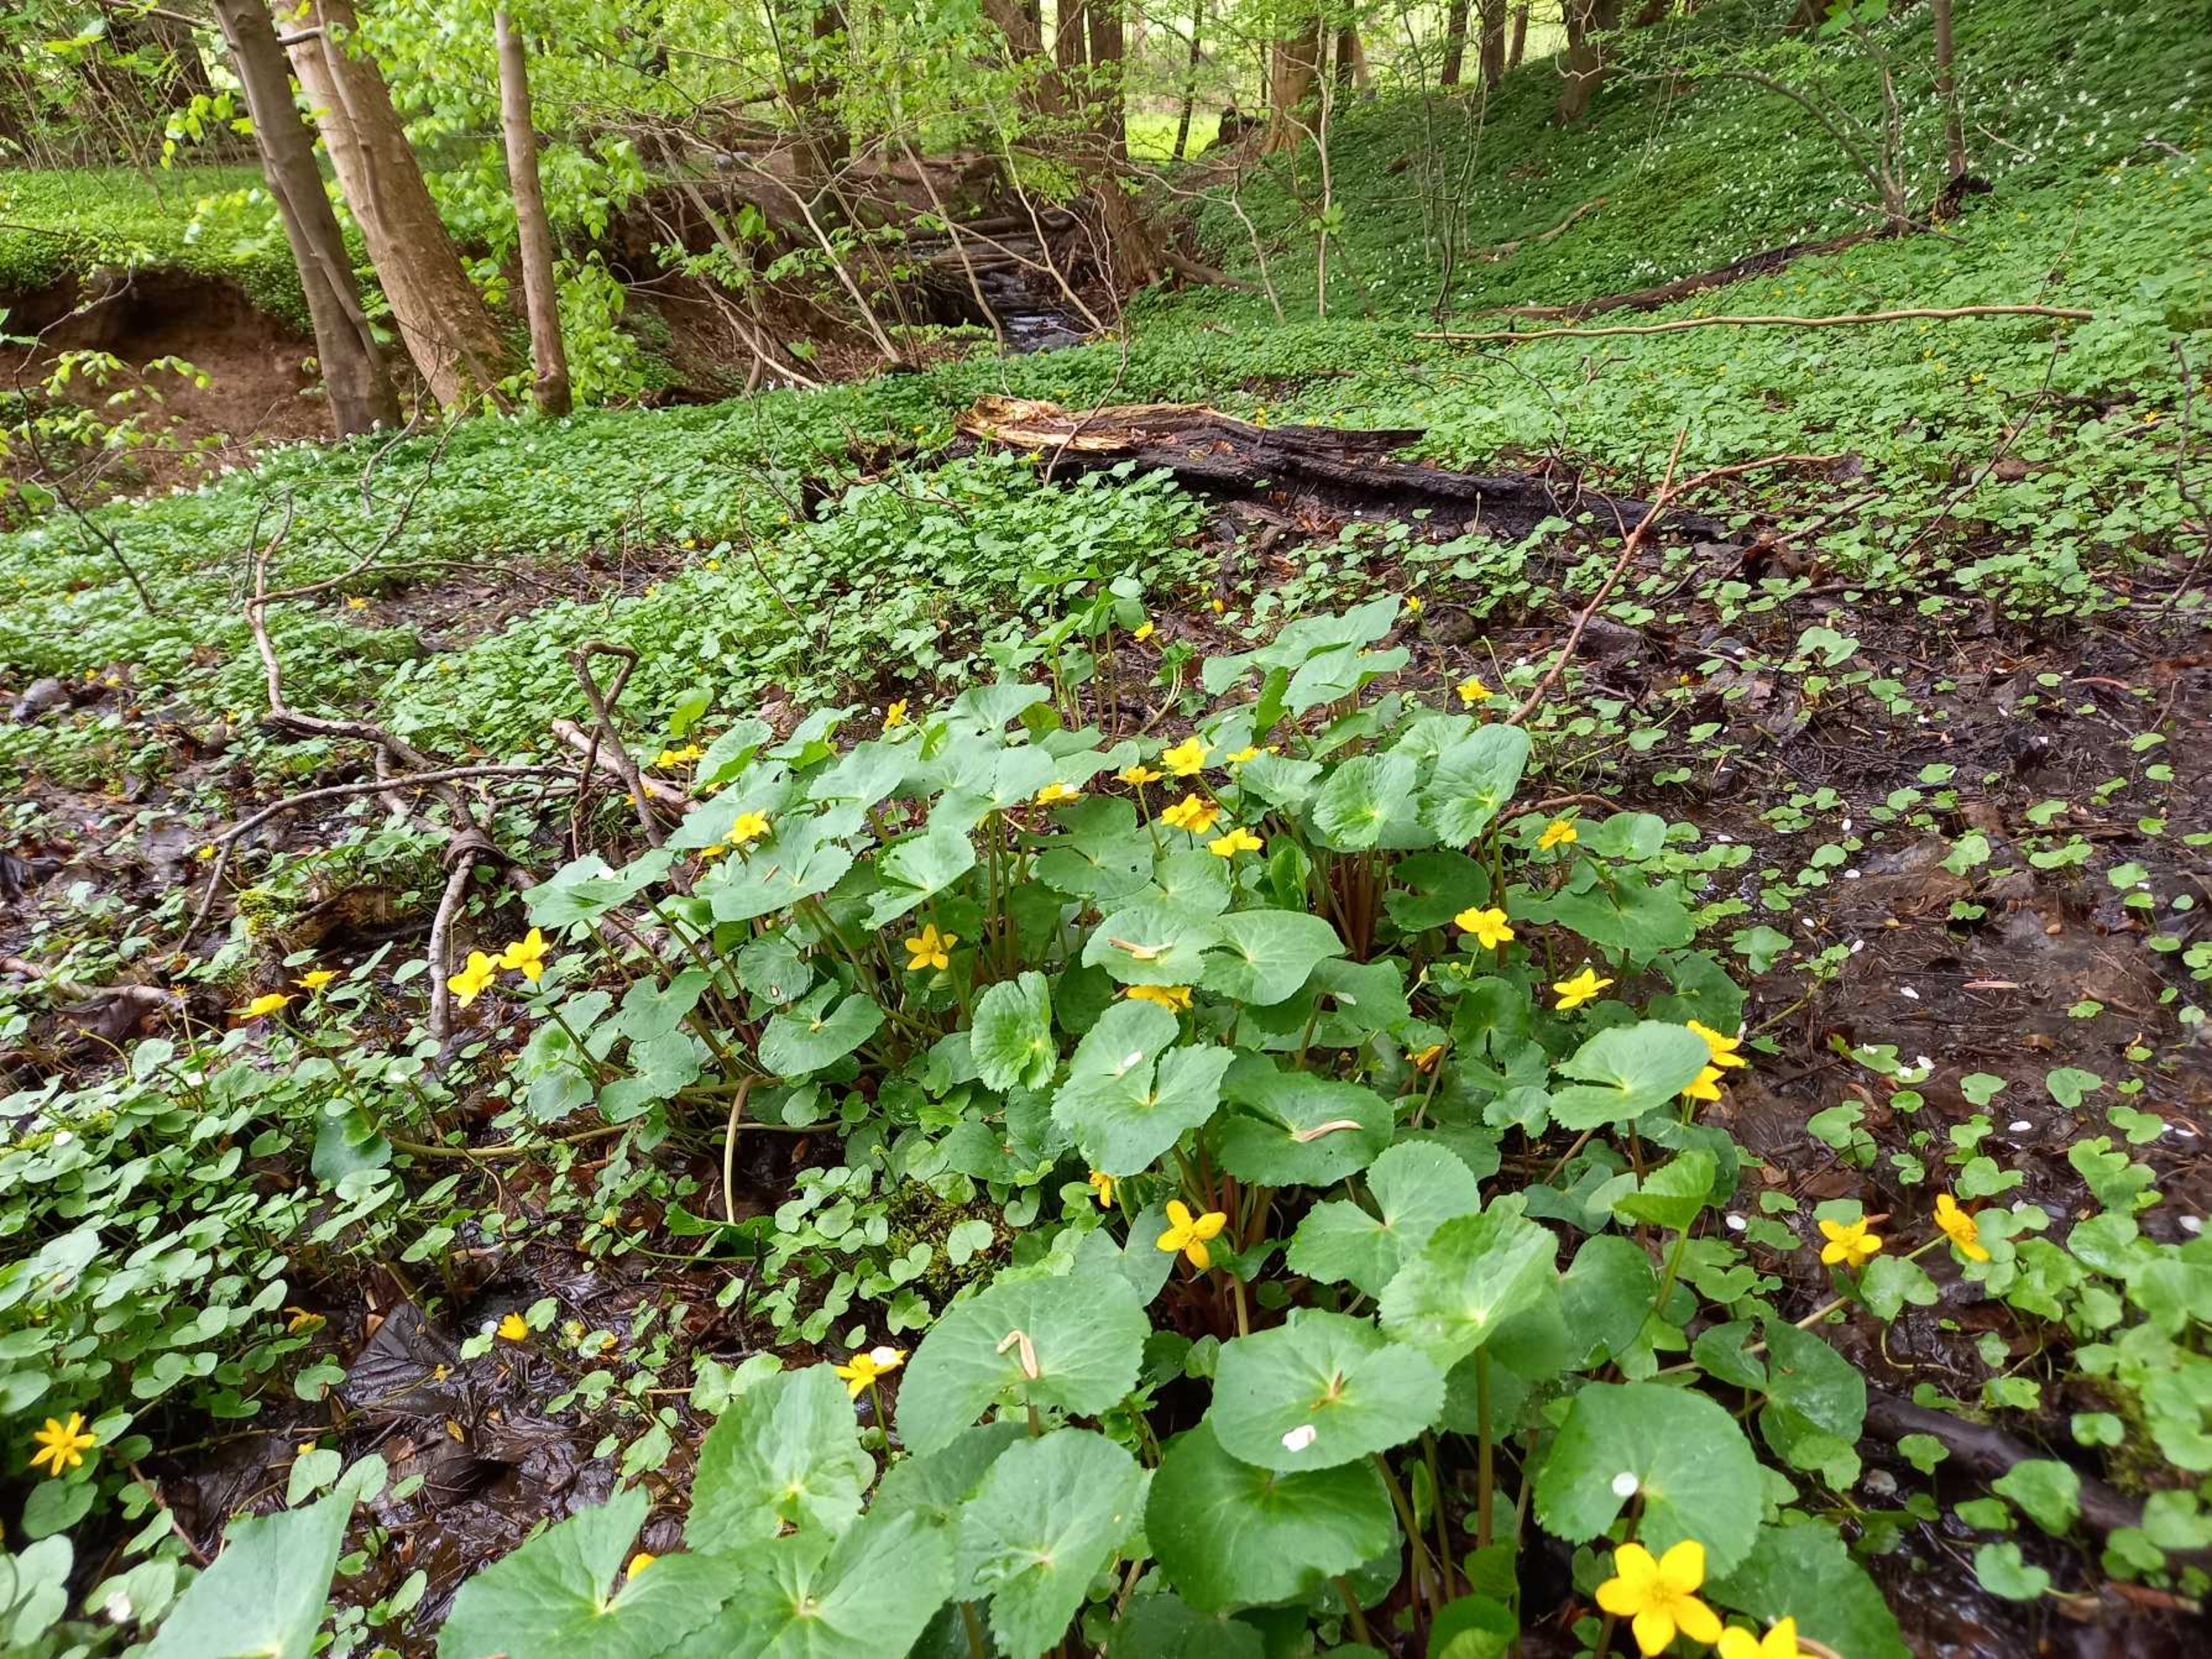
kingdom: Plantae
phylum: Tracheophyta
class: Magnoliopsida
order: Ranunculales
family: Ranunculaceae
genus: Caltha
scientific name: Caltha palustris
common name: Eng-kabbeleje
